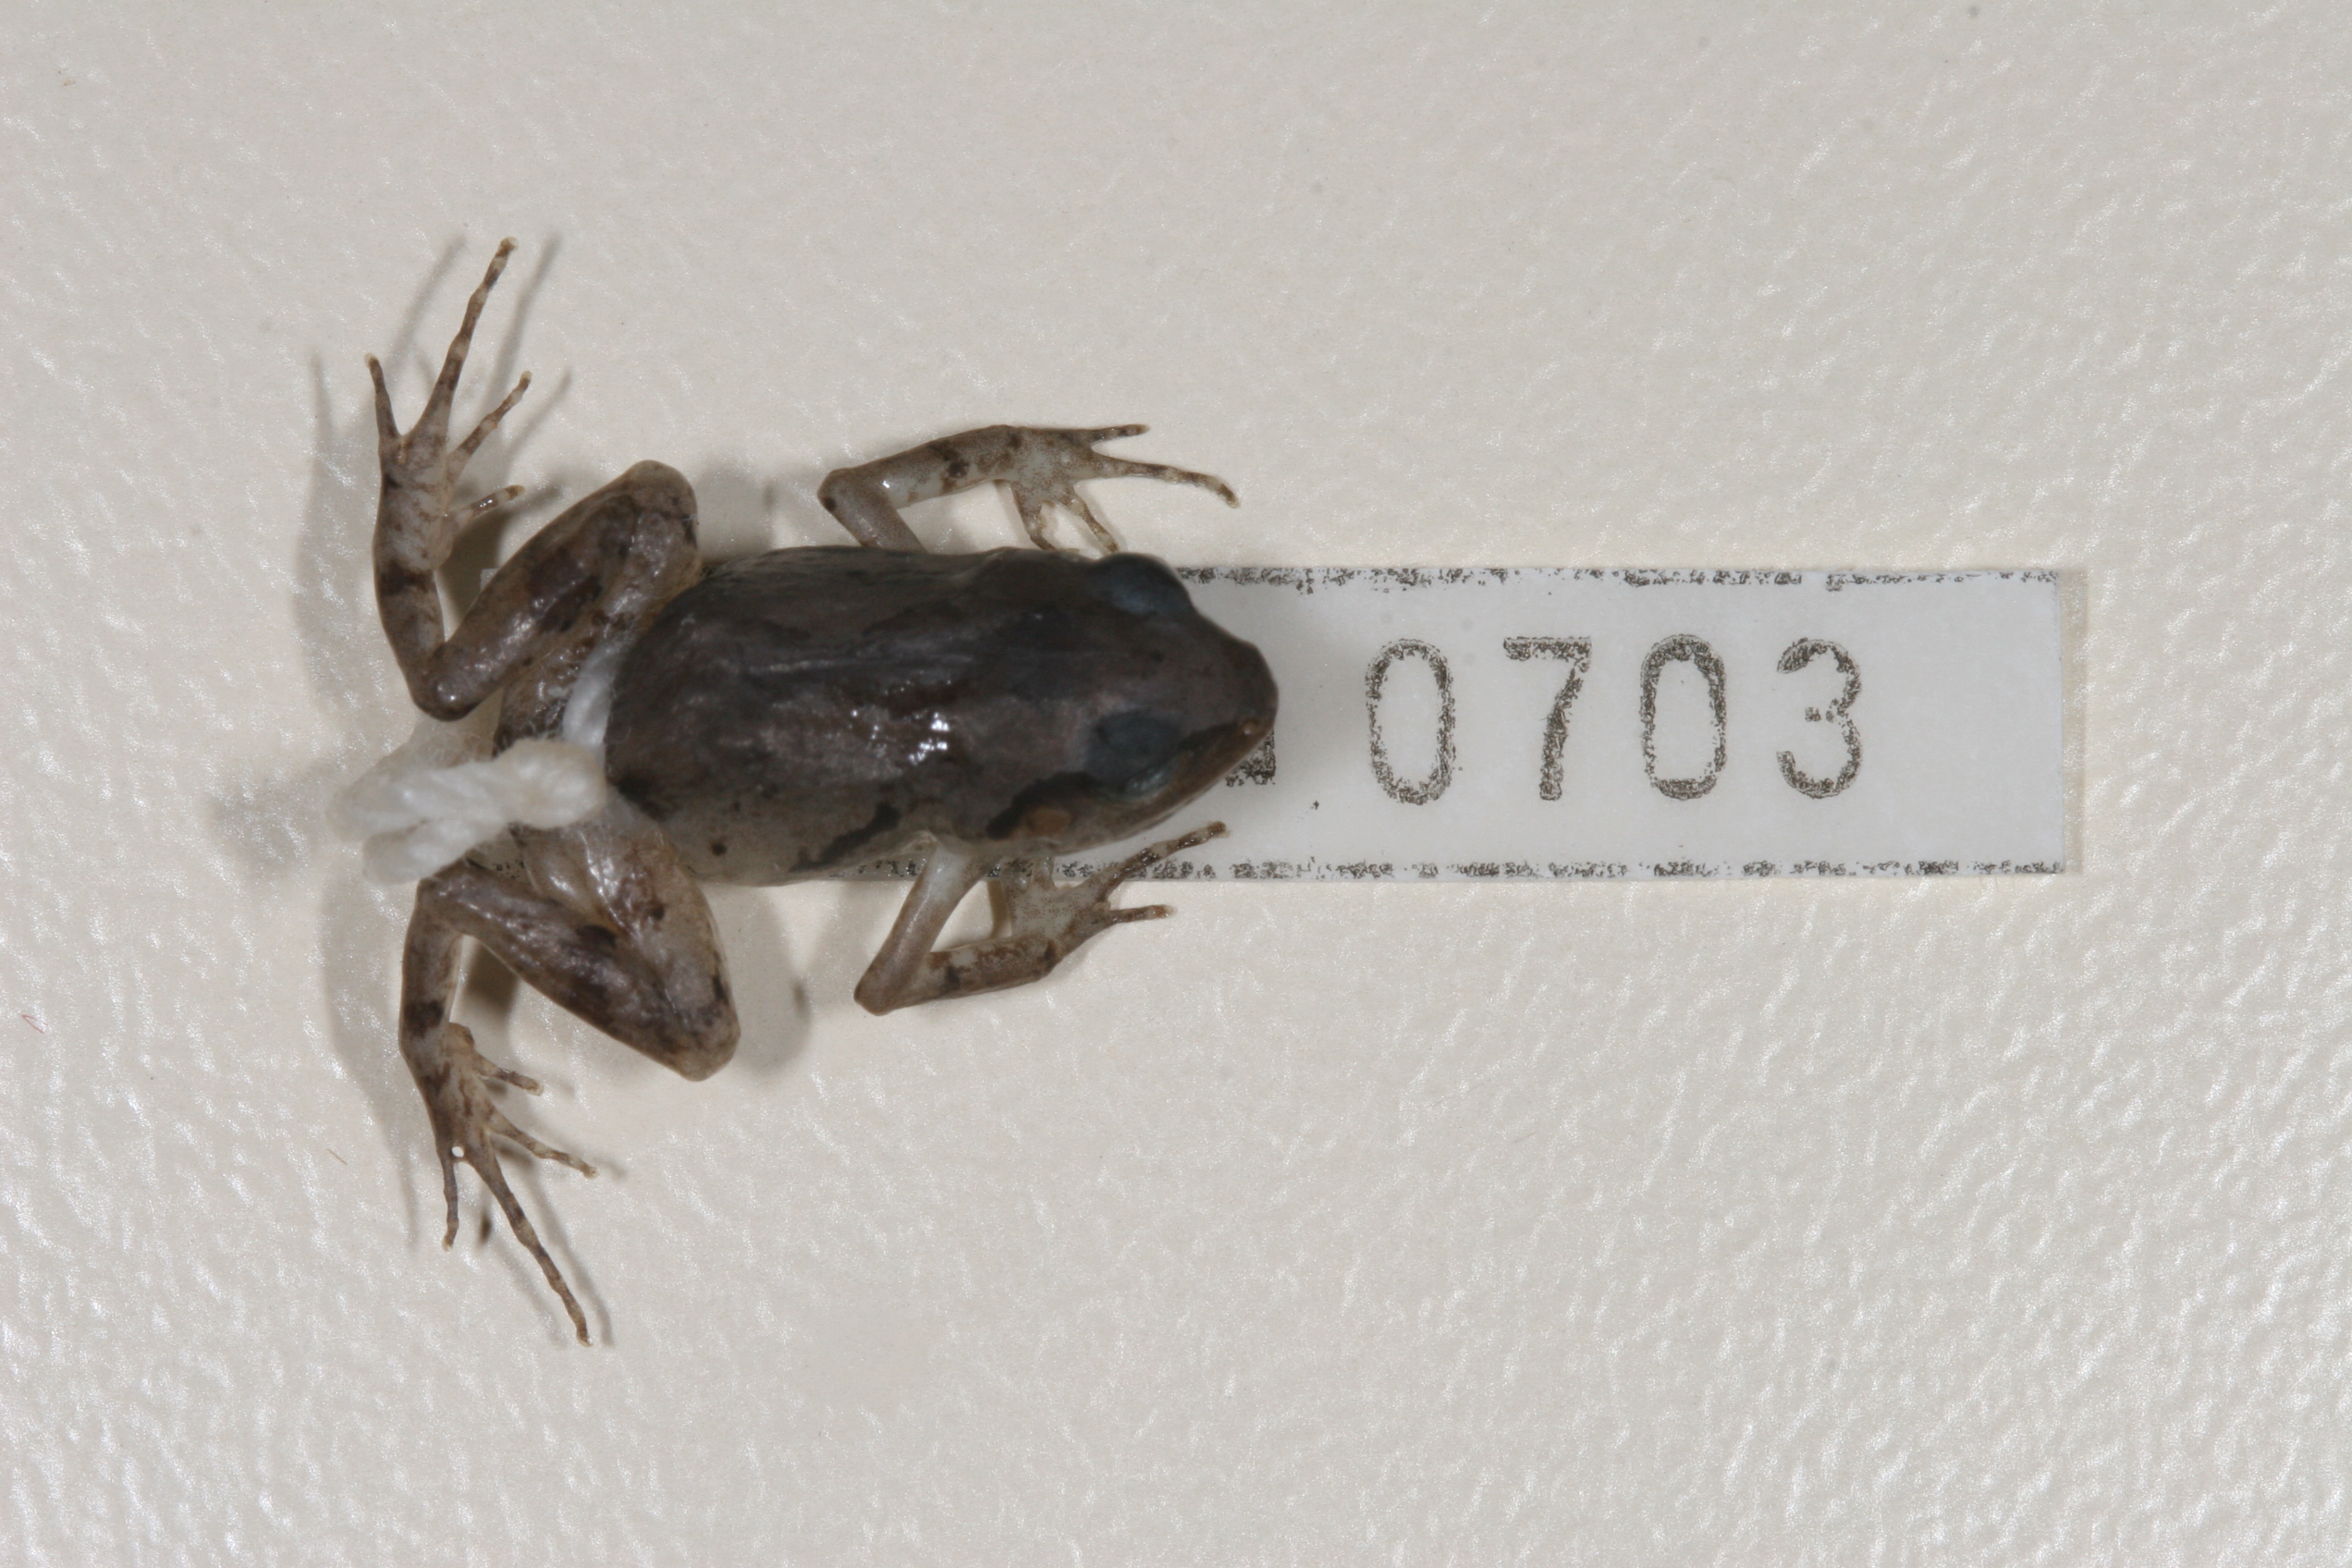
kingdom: Animalia
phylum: Chordata
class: Amphibia
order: Anura
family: Arthroleptidae
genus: Arthroleptis
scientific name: Arthroleptis wahlbergii
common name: Bush squeaker
